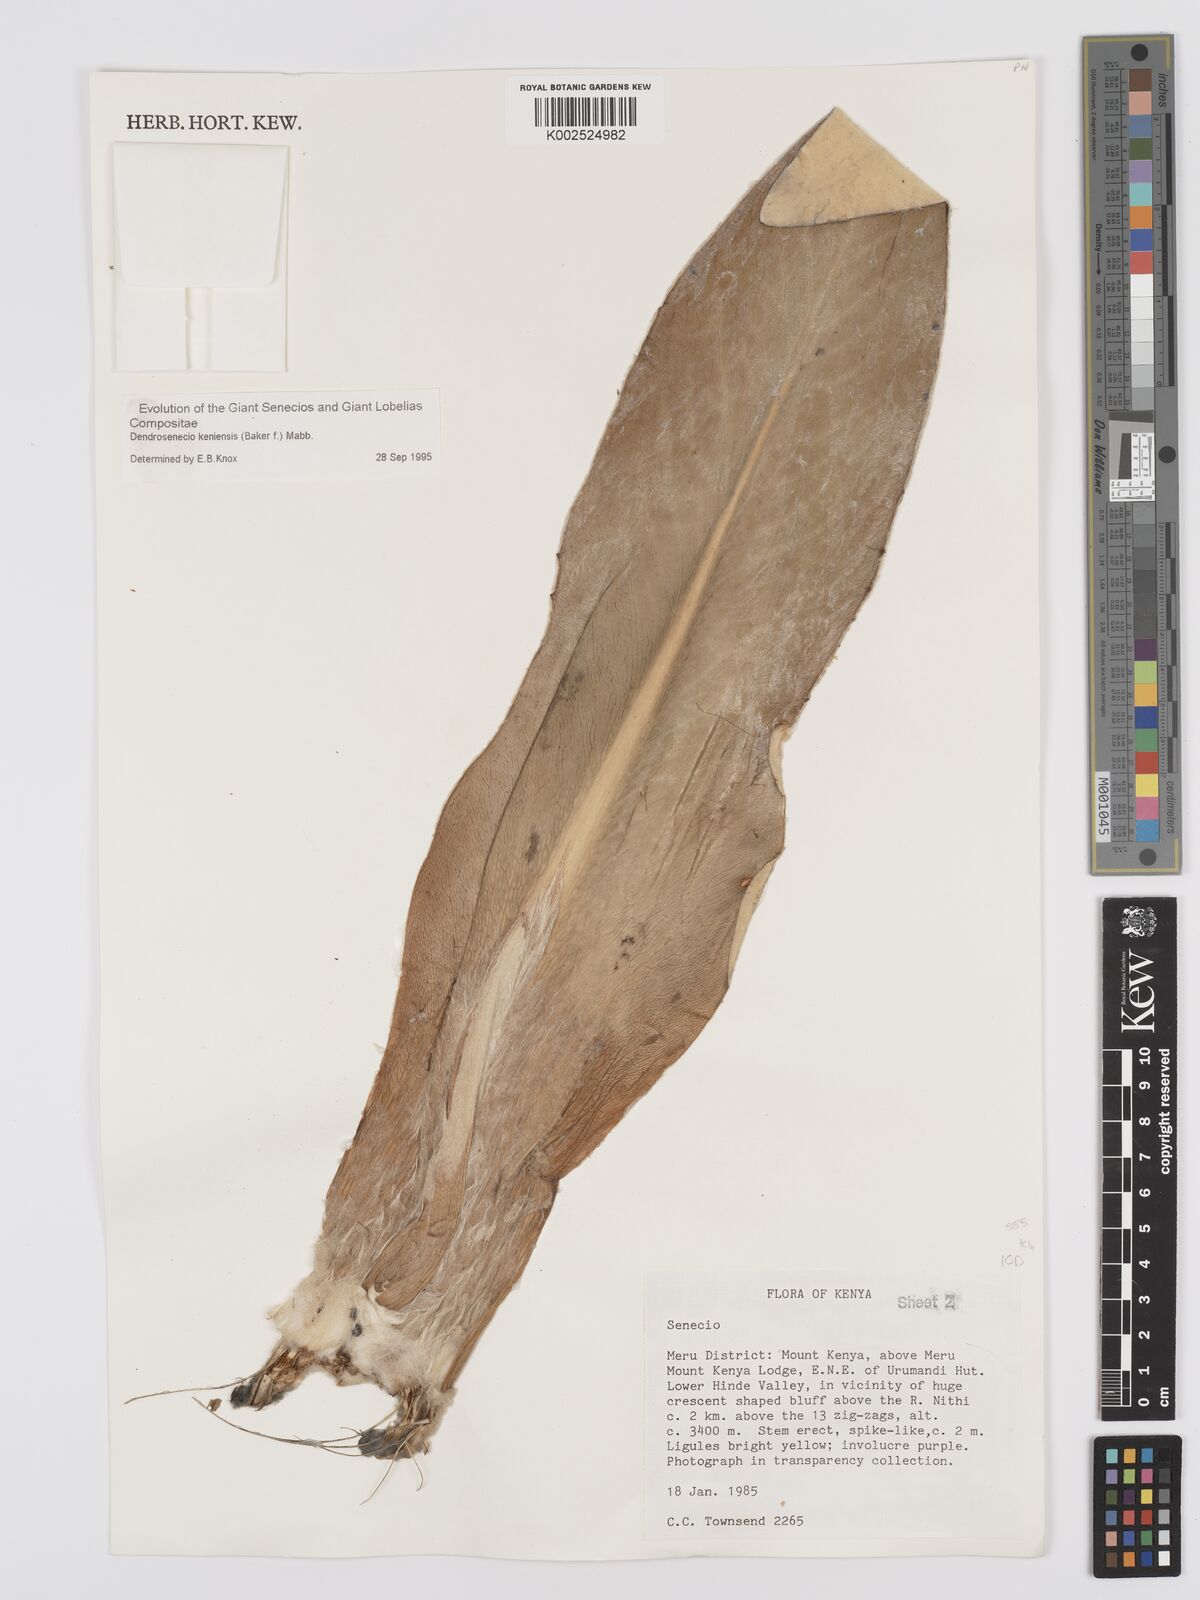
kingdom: Plantae
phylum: Tracheophyta
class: Magnoliopsida
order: Asterales
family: Asteraceae
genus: Dendrosenecio
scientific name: Dendrosenecio keniensis
